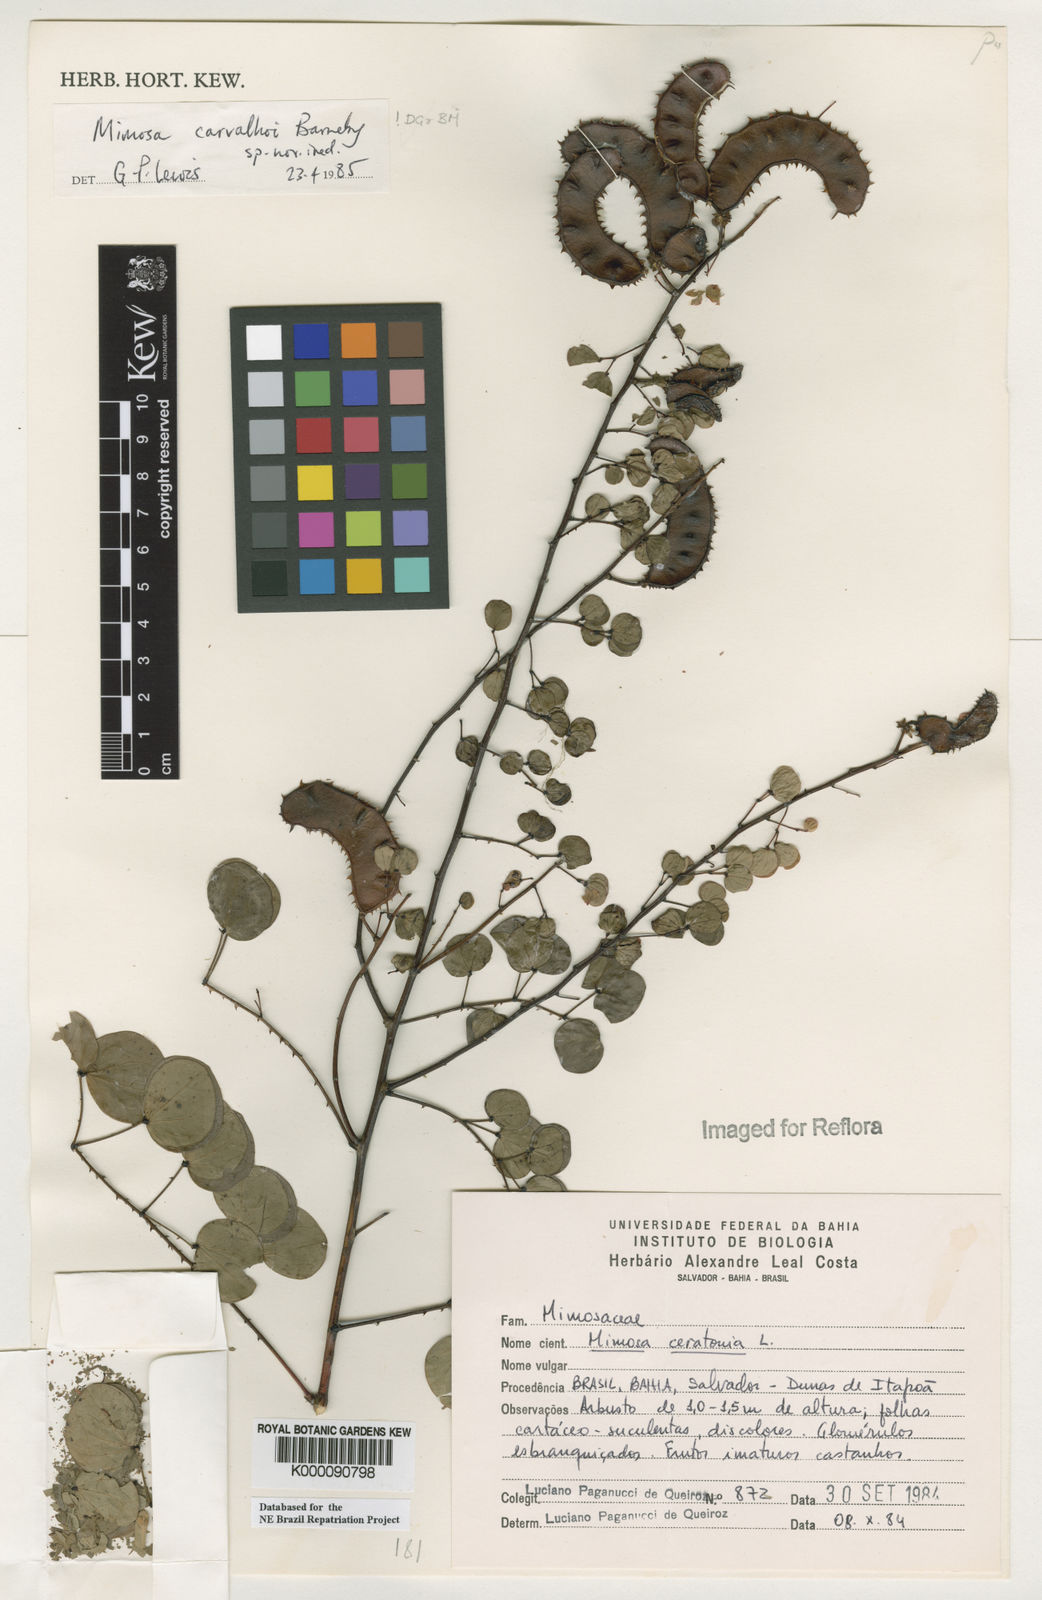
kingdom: Plantae
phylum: Tracheophyta
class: Magnoliopsida
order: Fabales
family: Fabaceae
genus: Mimosa
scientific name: Mimosa carvalhoi
